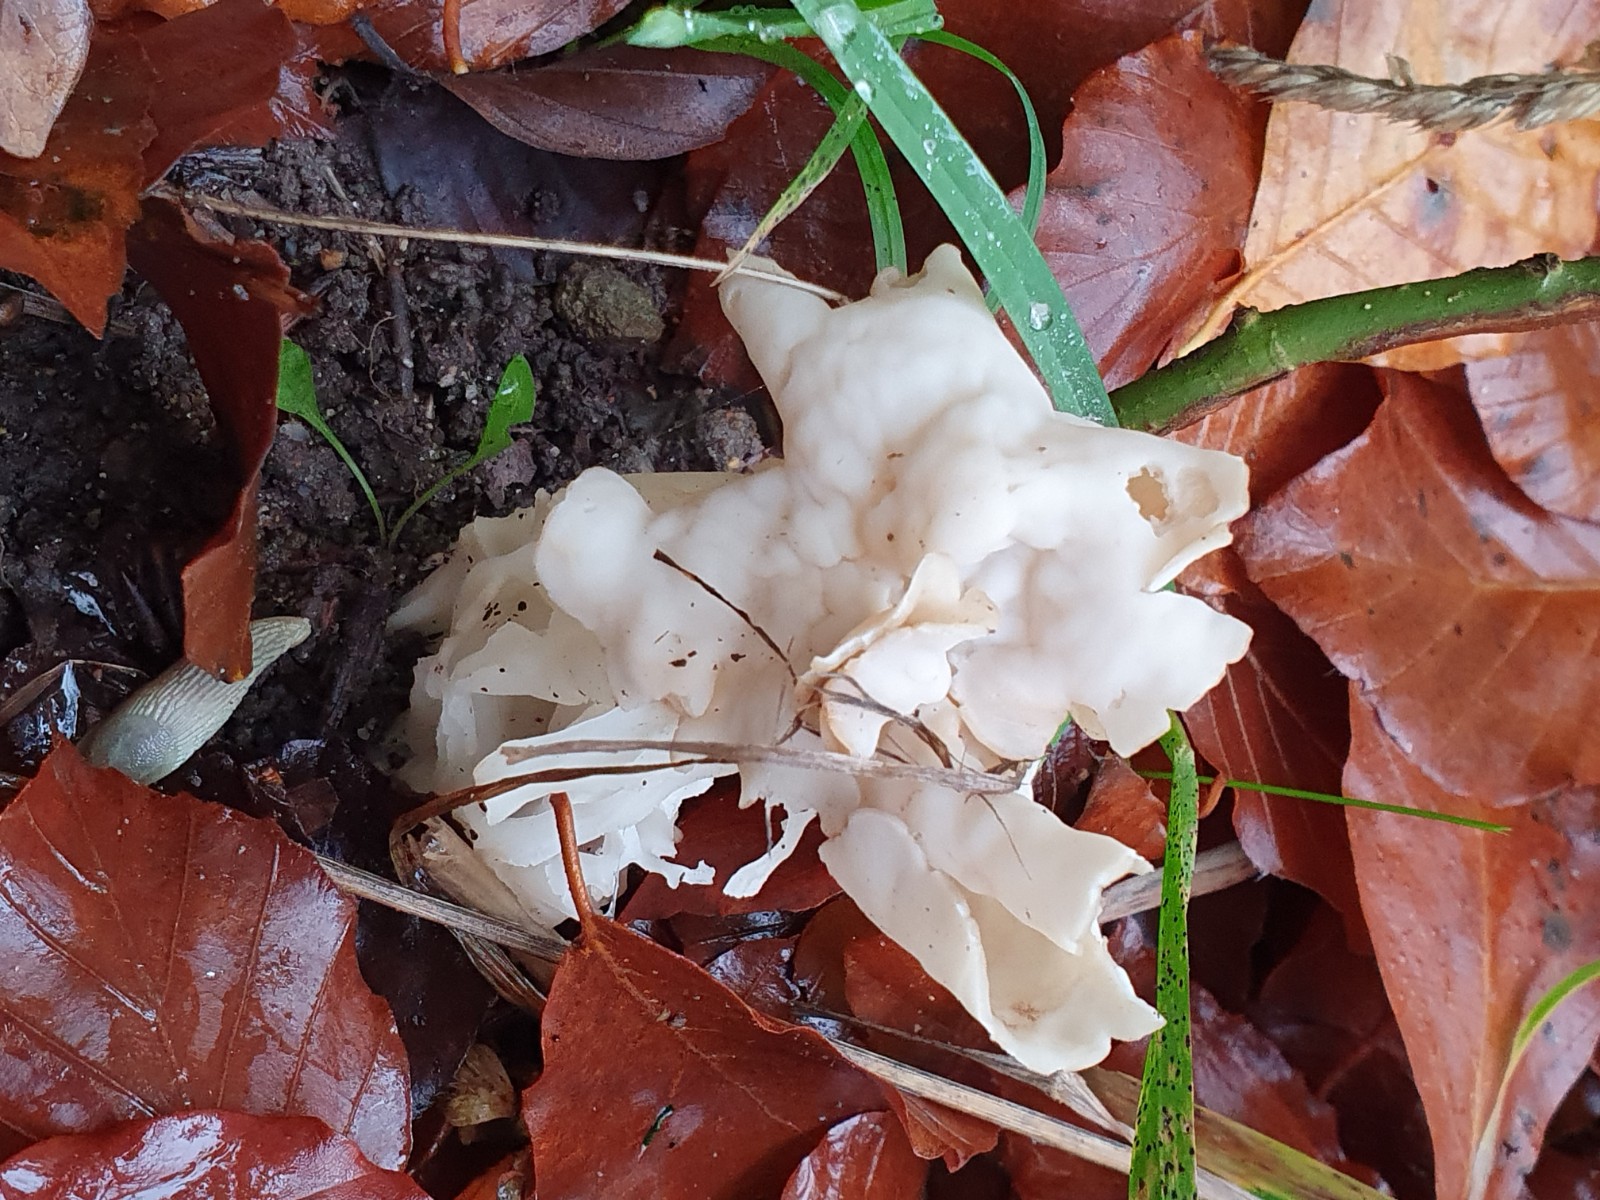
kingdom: Fungi
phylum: Ascomycota
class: Pezizomycetes
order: Pezizales
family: Helvellaceae
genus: Helvella
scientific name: Helvella crispa
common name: kruset foldhat
